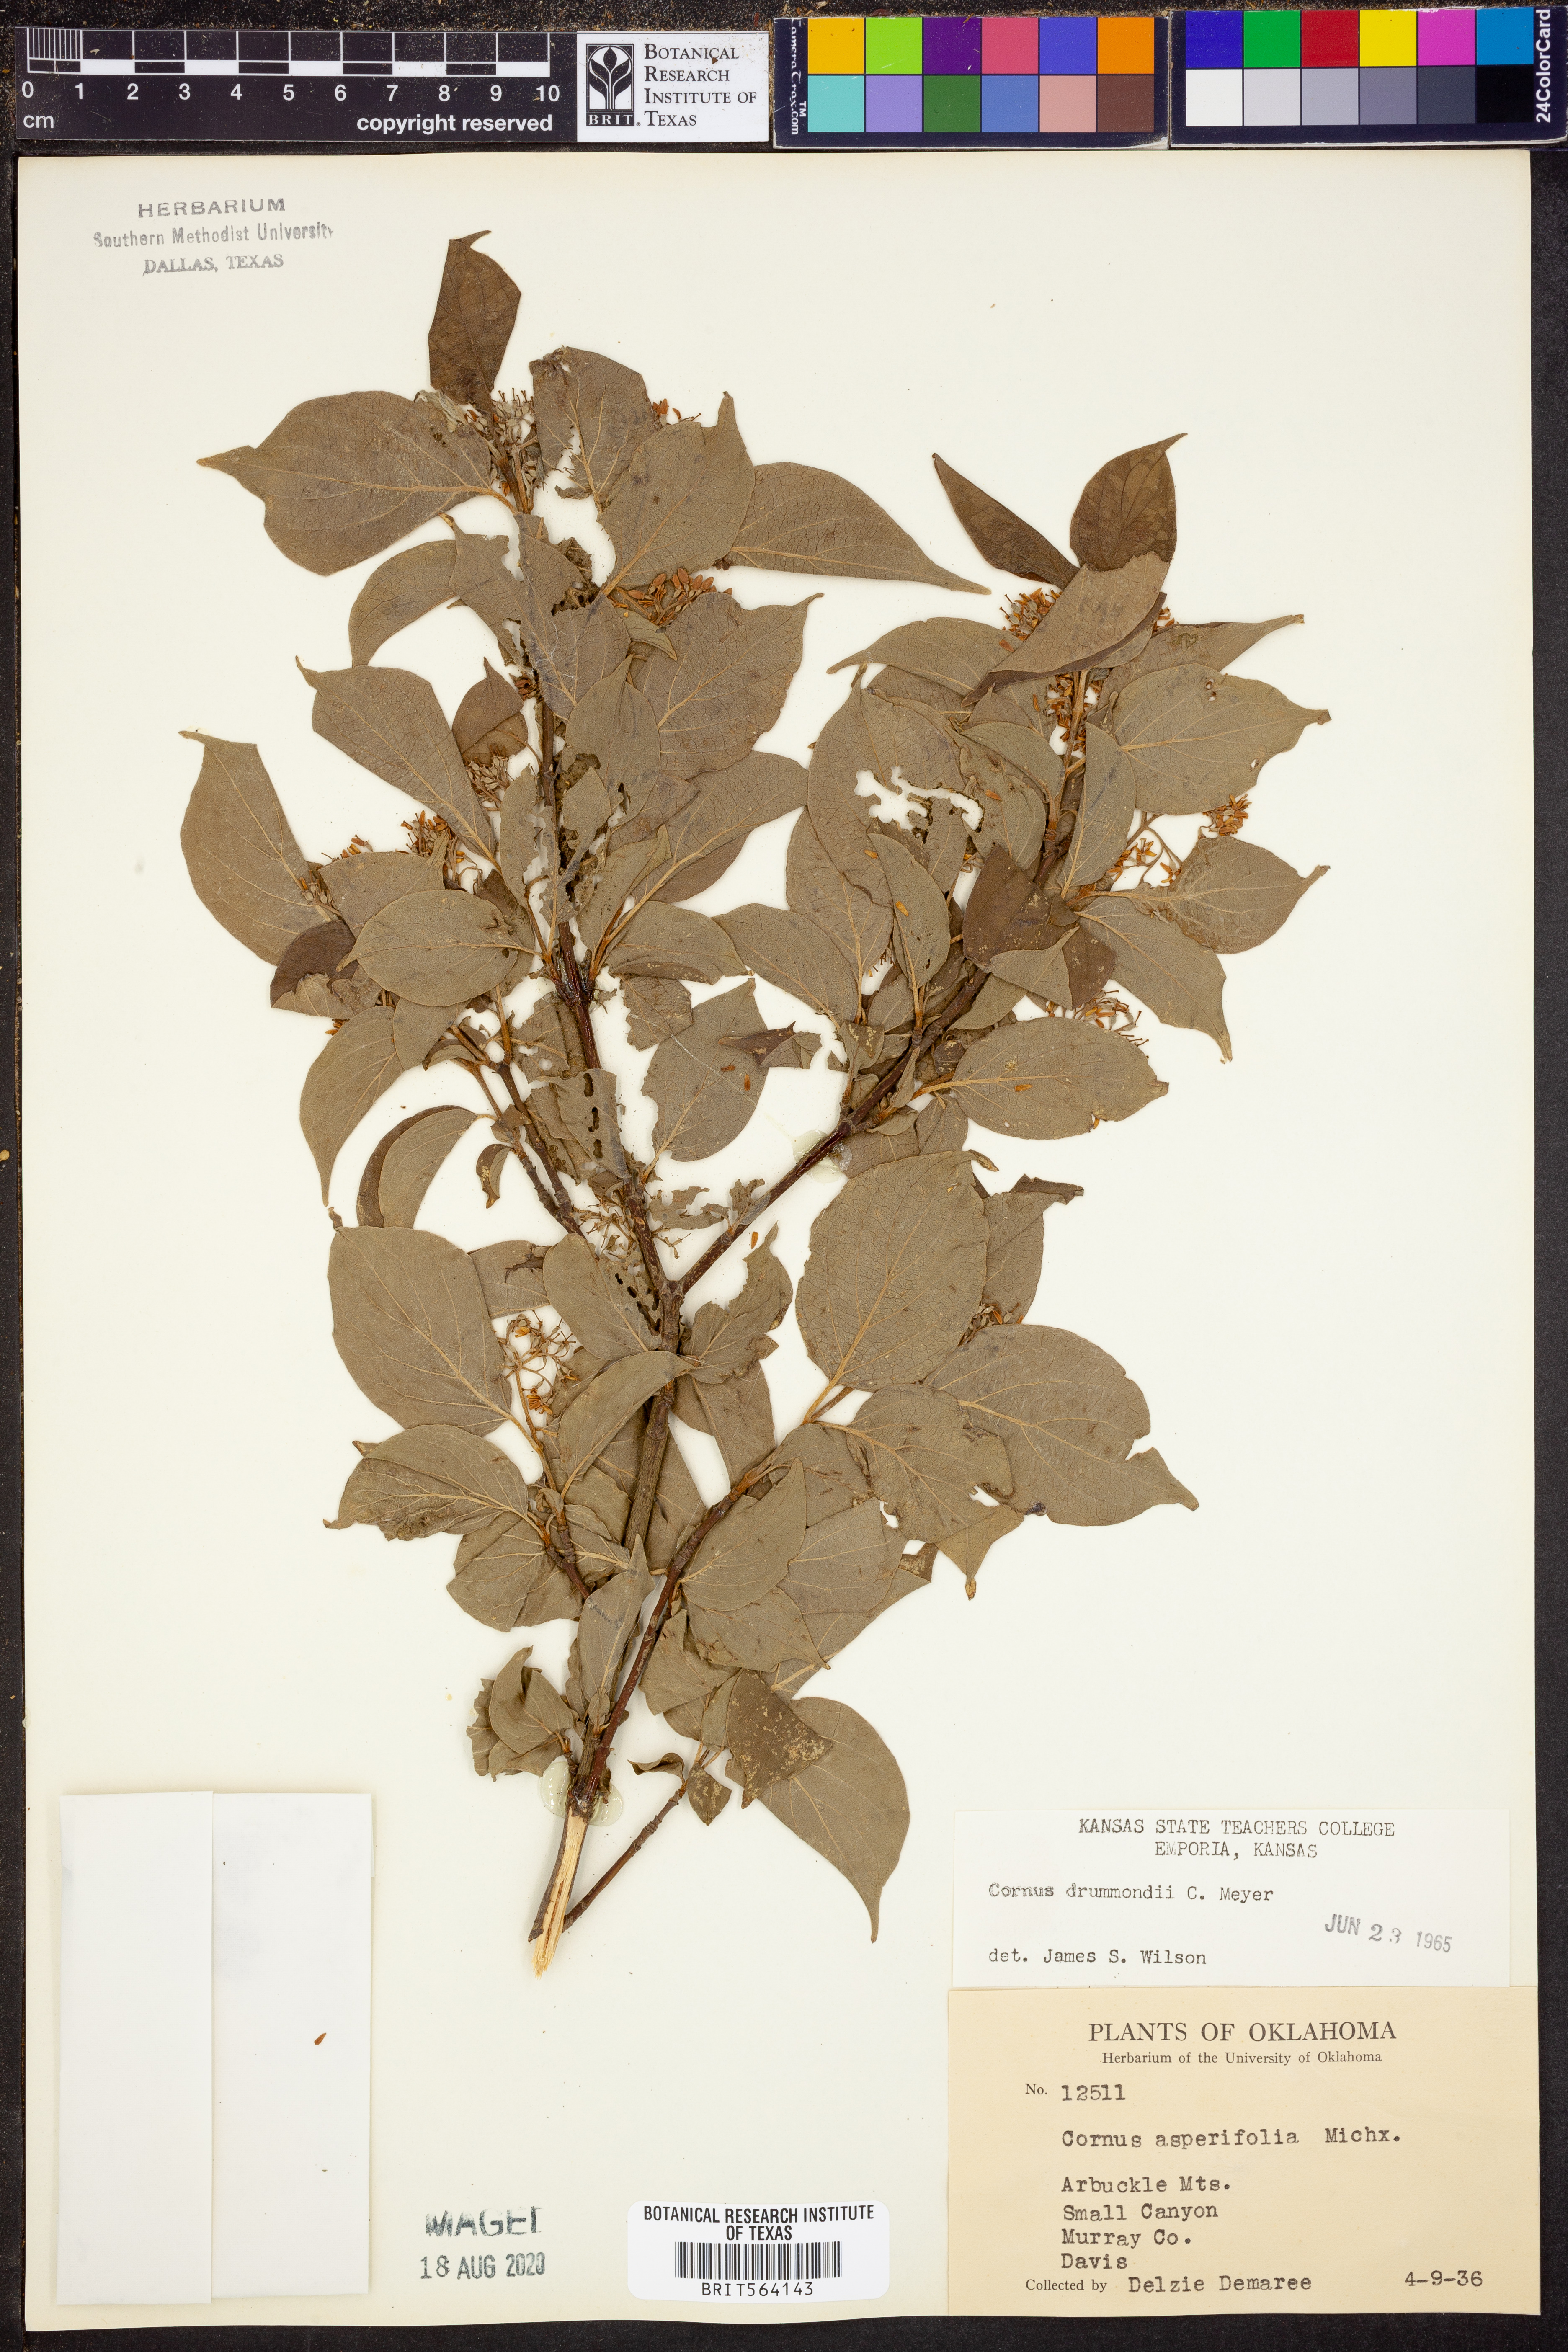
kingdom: Plantae
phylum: Tracheophyta
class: Magnoliopsida
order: Cornales
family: Cornaceae
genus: Cornus
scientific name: Cornus drummondii
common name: Rough-leaf dogwood
